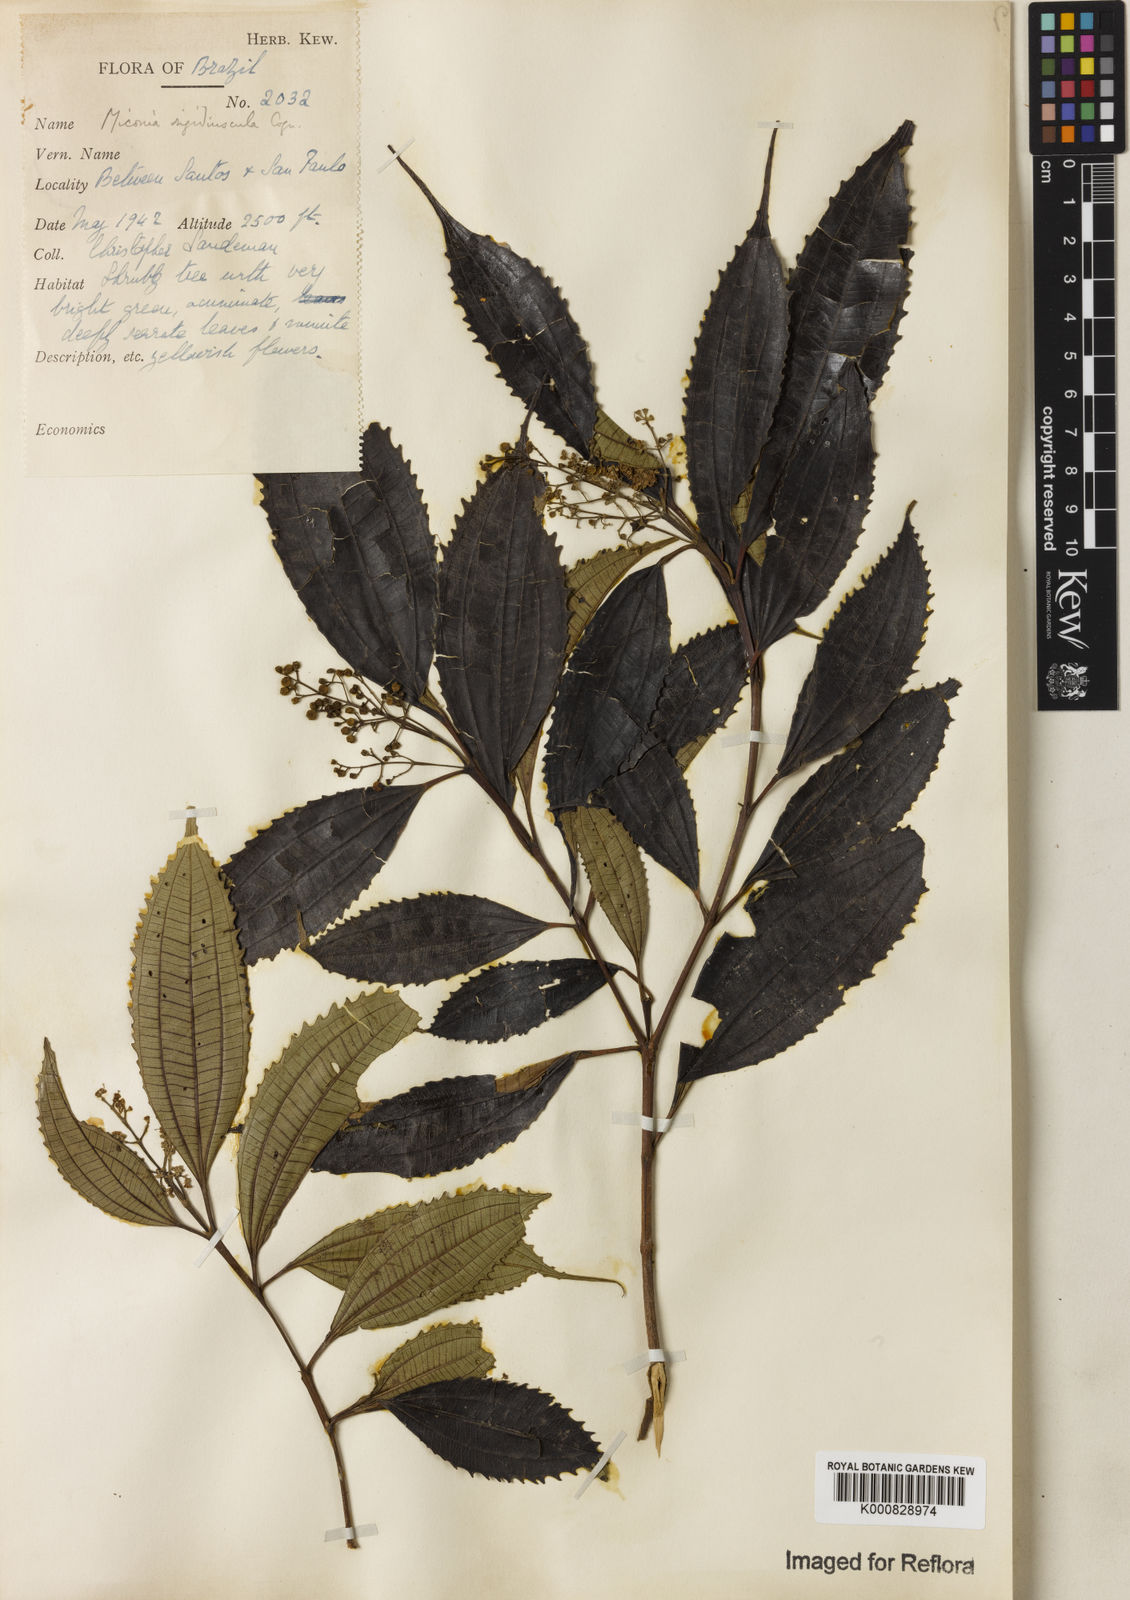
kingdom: Plantae
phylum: Tracheophyta
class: Magnoliopsida
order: Myrtales
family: Melastomataceae
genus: Miconia
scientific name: Miconia pusilliflora
